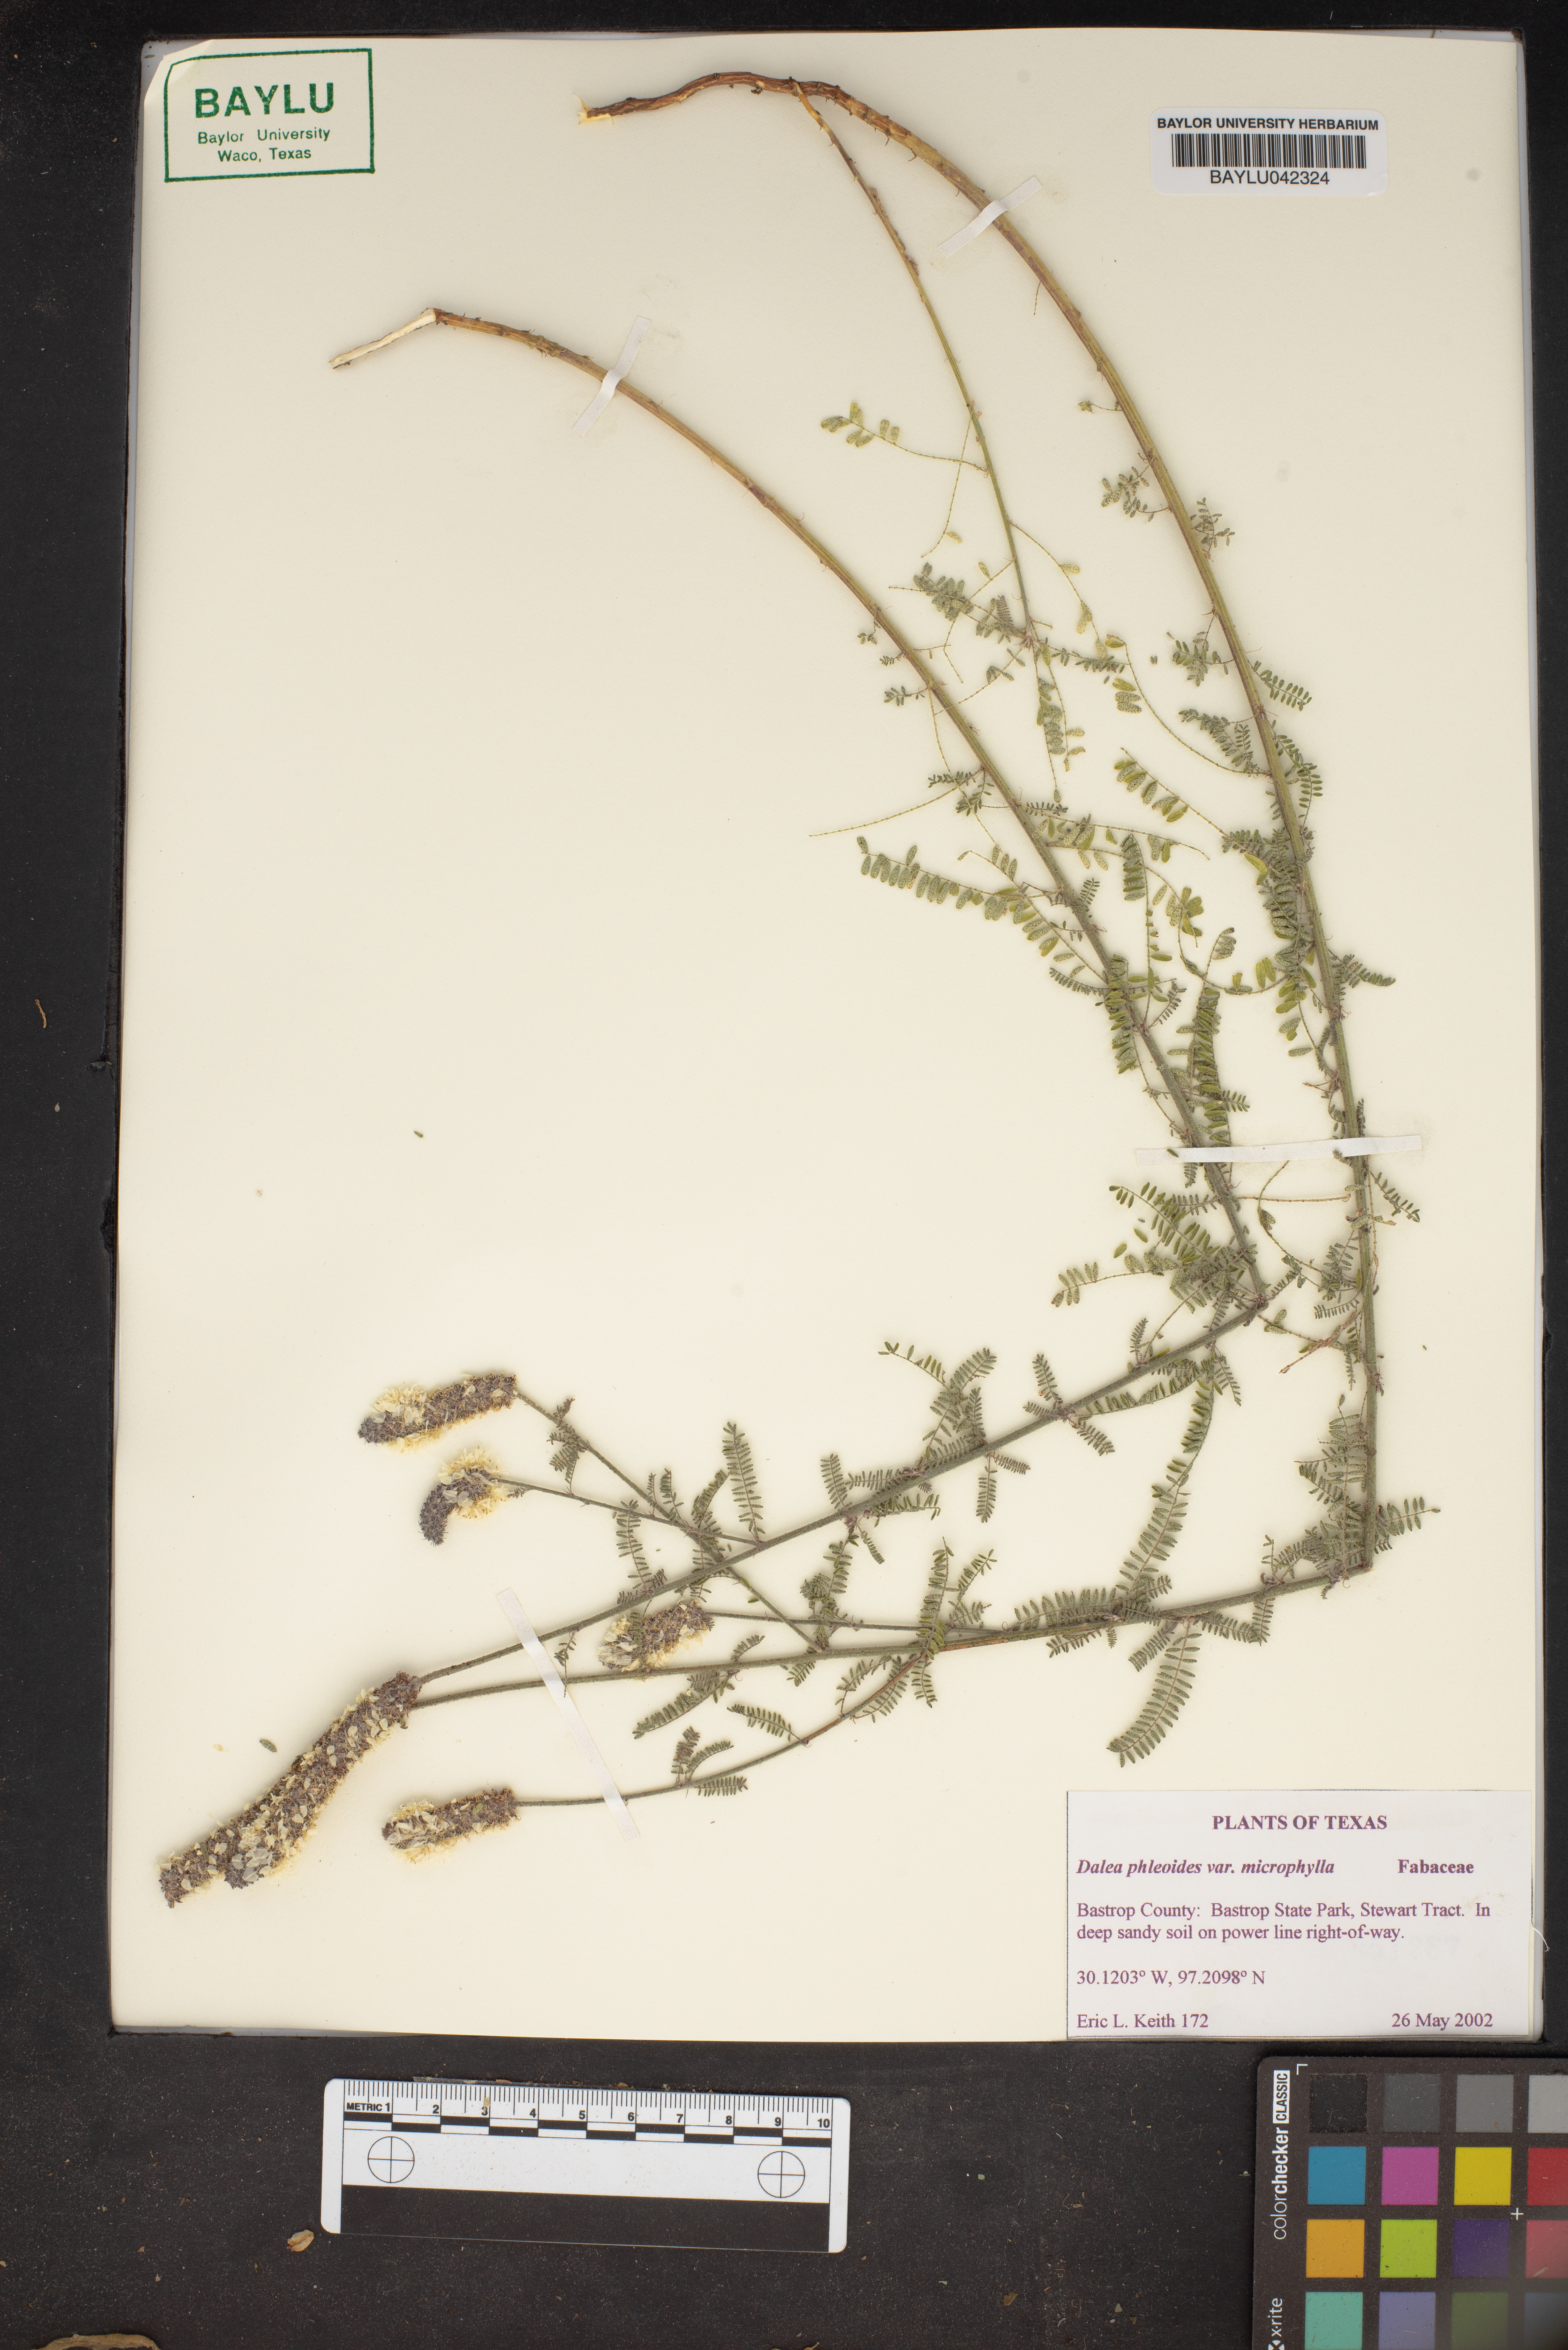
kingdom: Plantae
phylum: Tracheophyta
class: Magnoliopsida
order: Fabales
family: Fabaceae
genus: Dalea
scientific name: Dalea drummondiana
